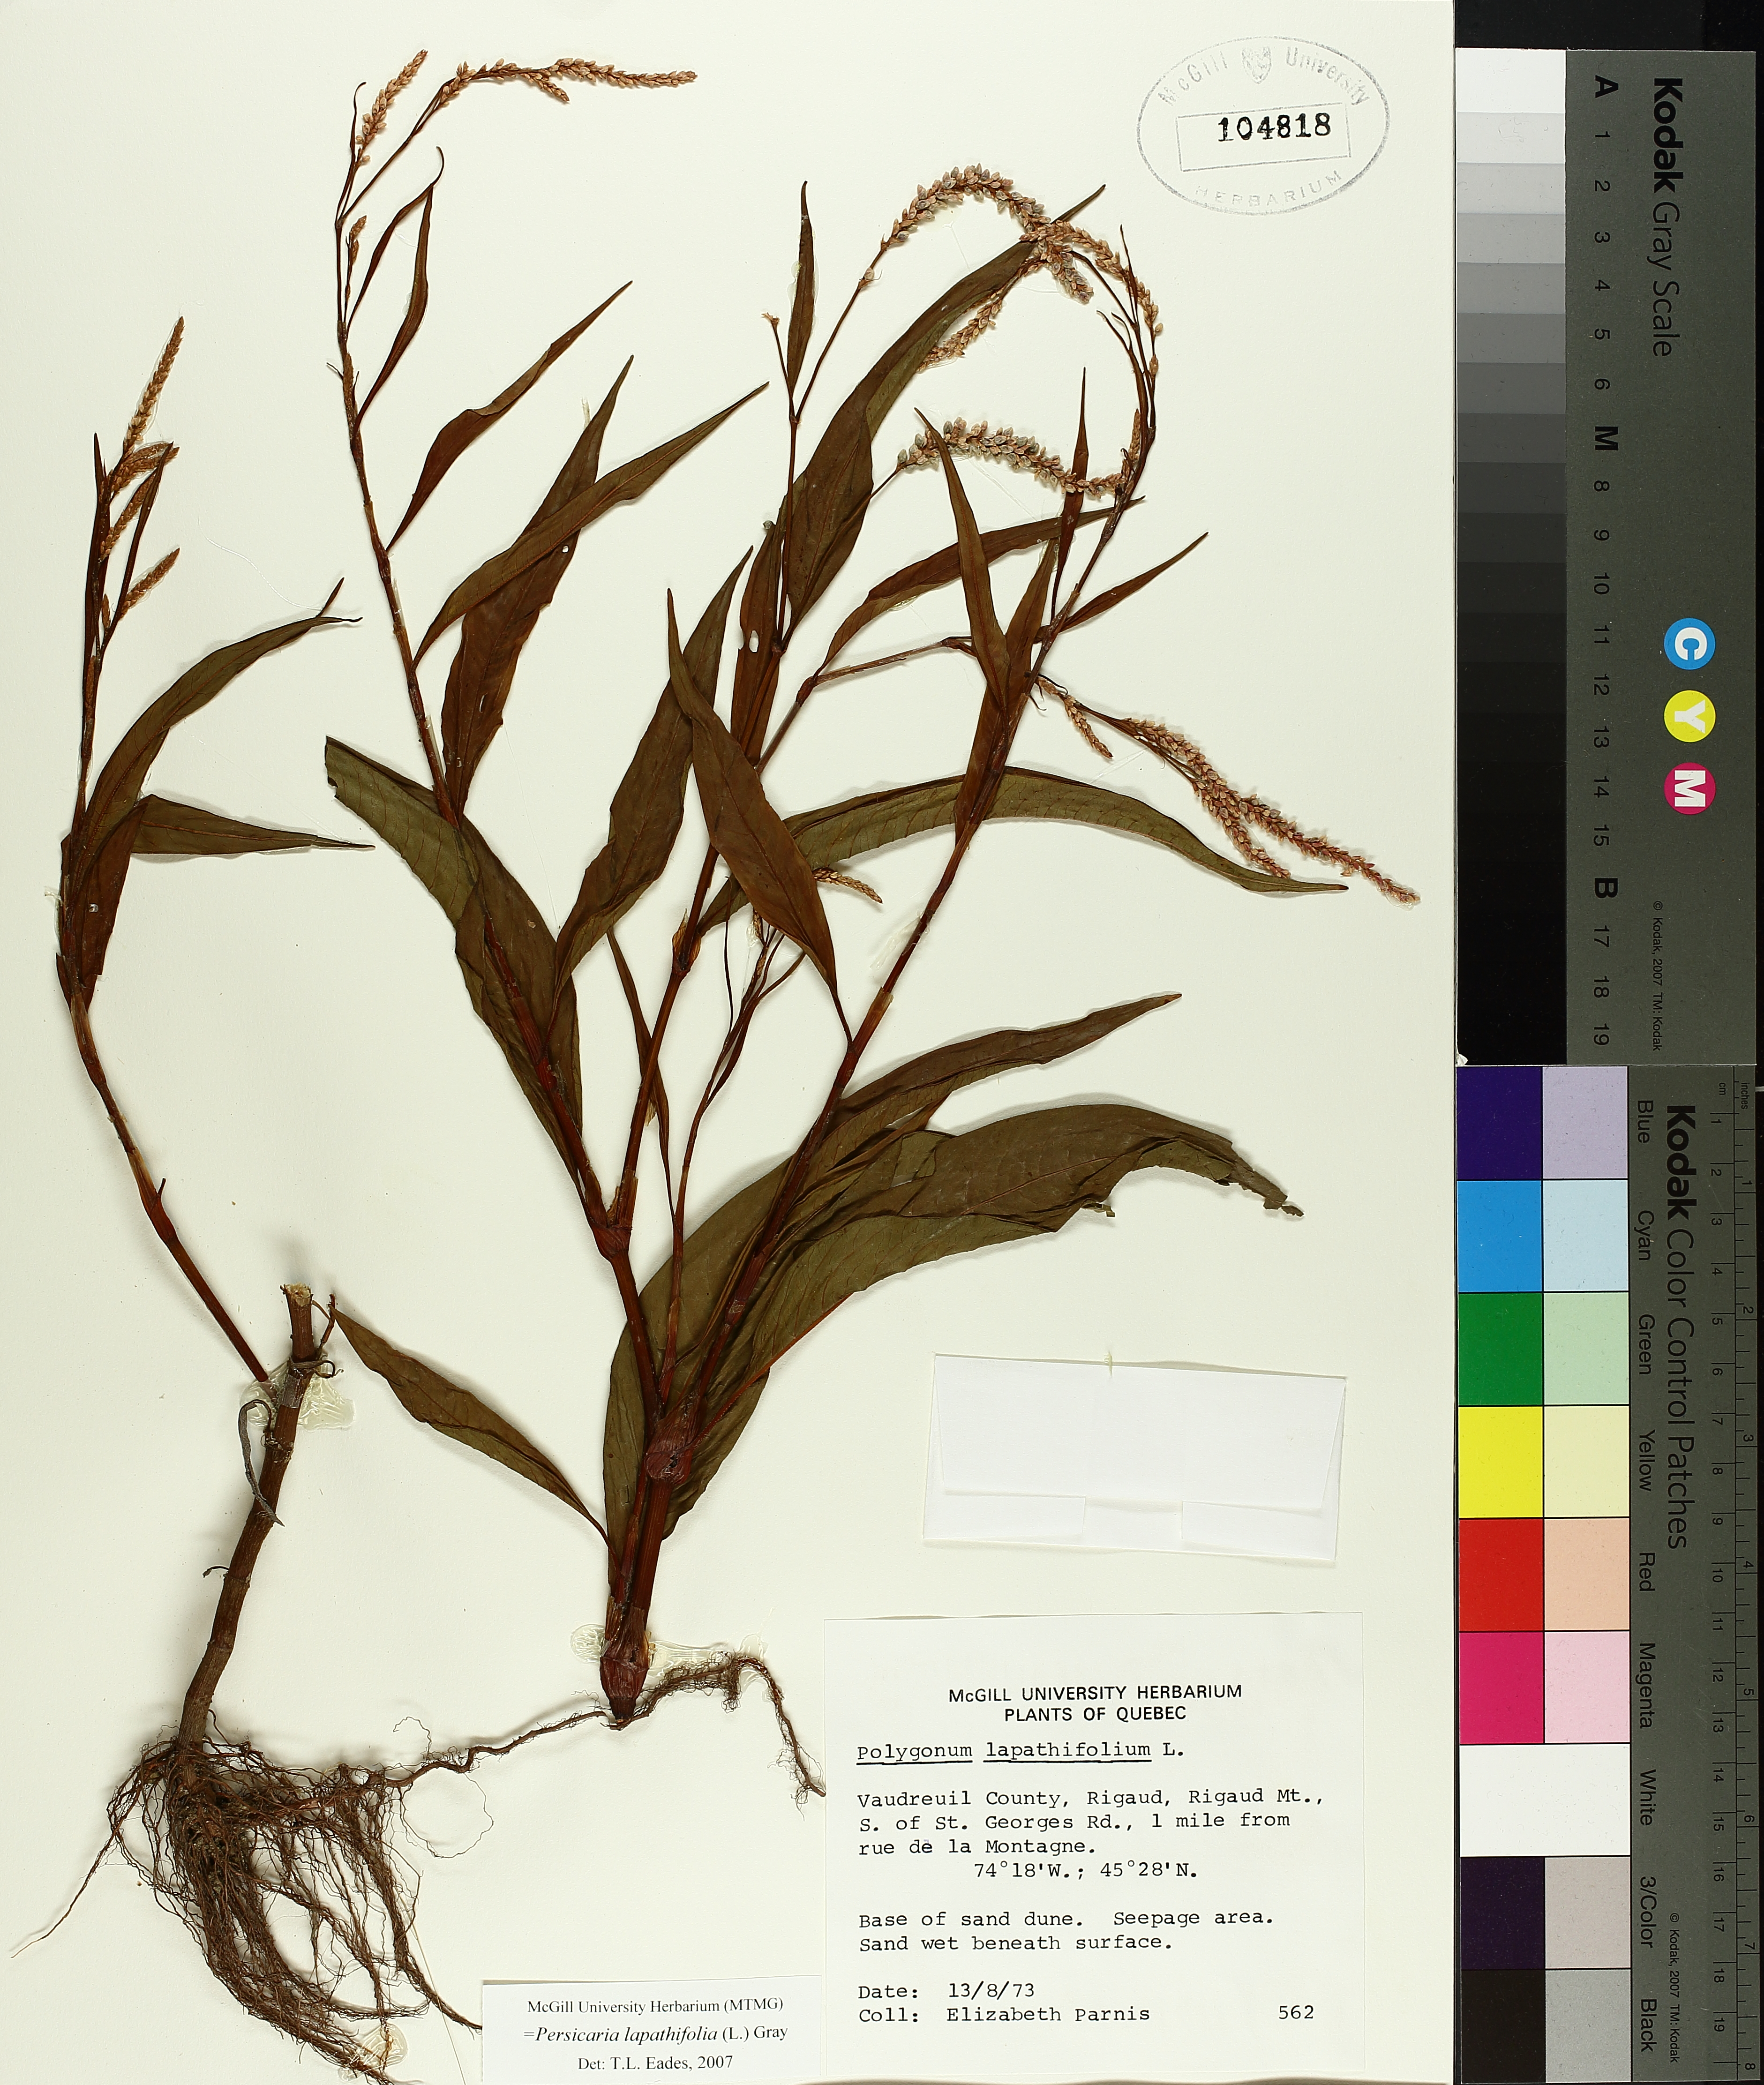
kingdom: Plantae
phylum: Tracheophyta
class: Magnoliopsida
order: Caryophyllales
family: Polygonaceae
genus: Persicaria
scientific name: Persicaria lapathifolia
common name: Curlytop knotweed
